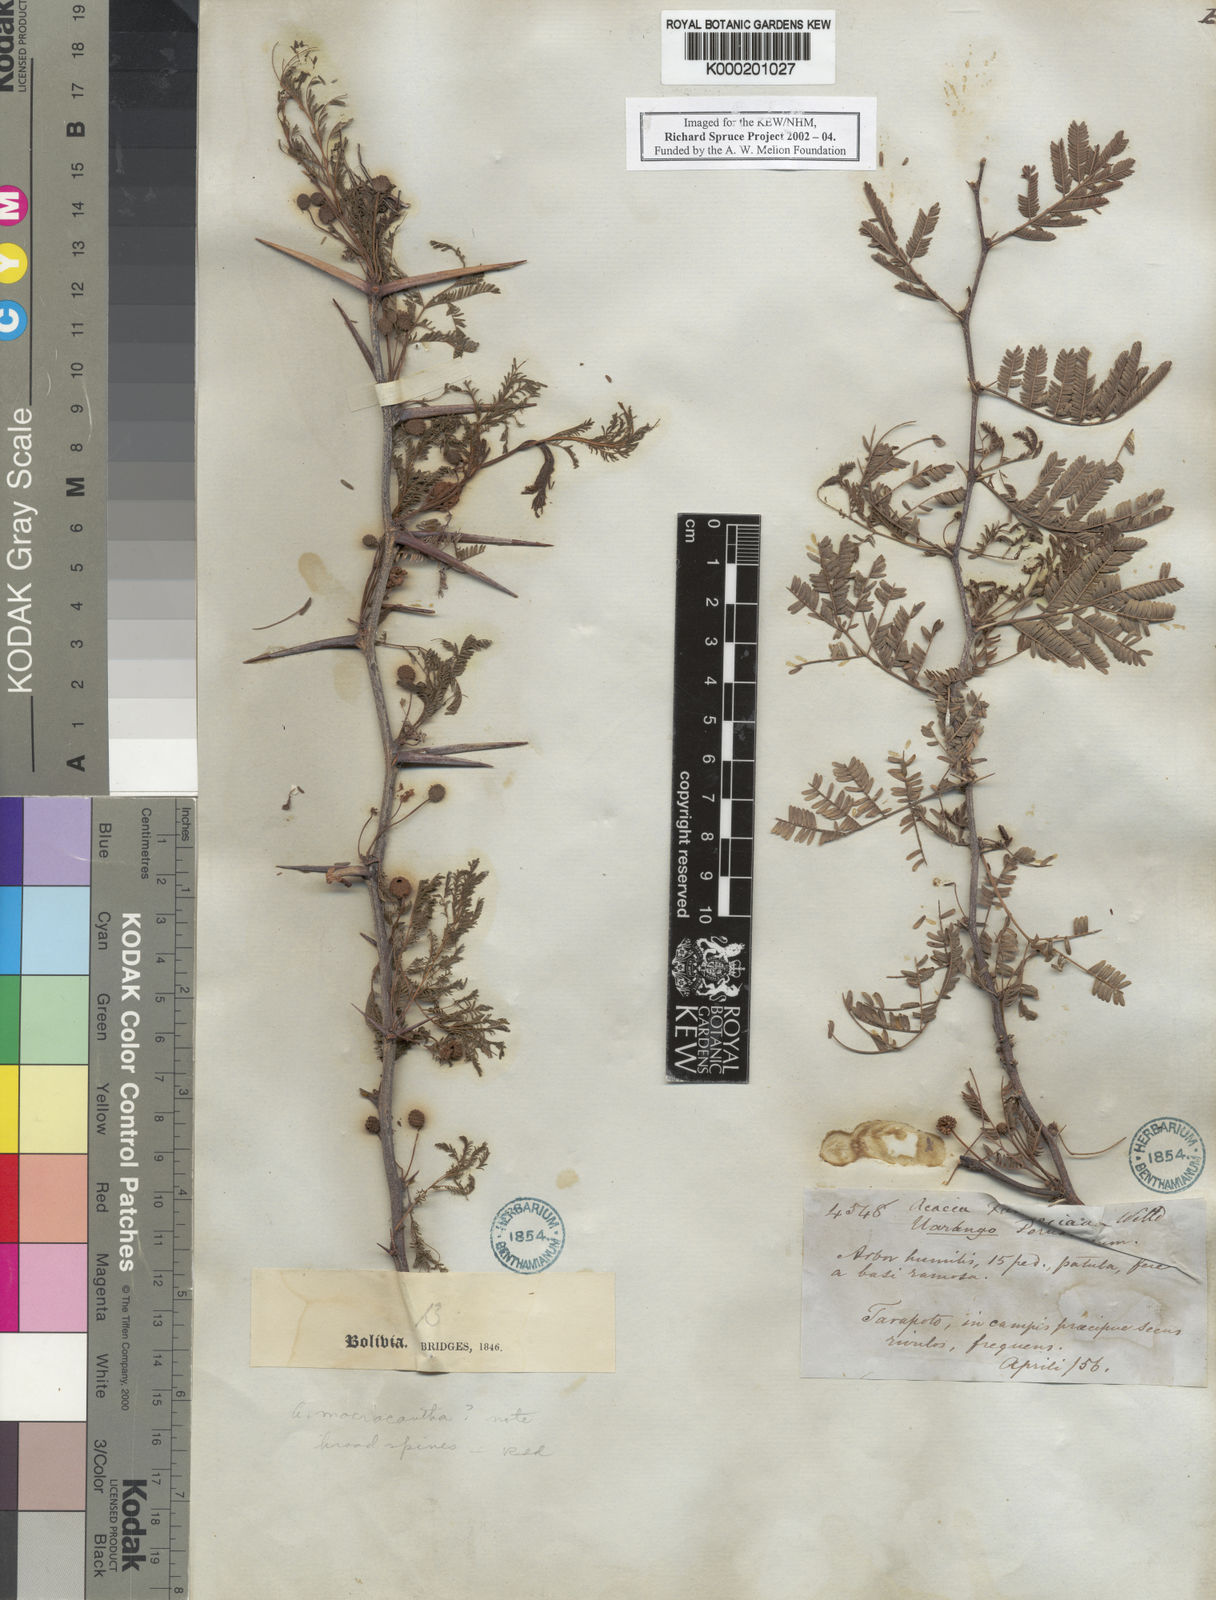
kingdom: Plantae
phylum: Tracheophyta
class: Magnoliopsida
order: Fabales
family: Fabaceae
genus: Vachellia
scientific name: Vachellia farnesiana
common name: Sweet acacia
